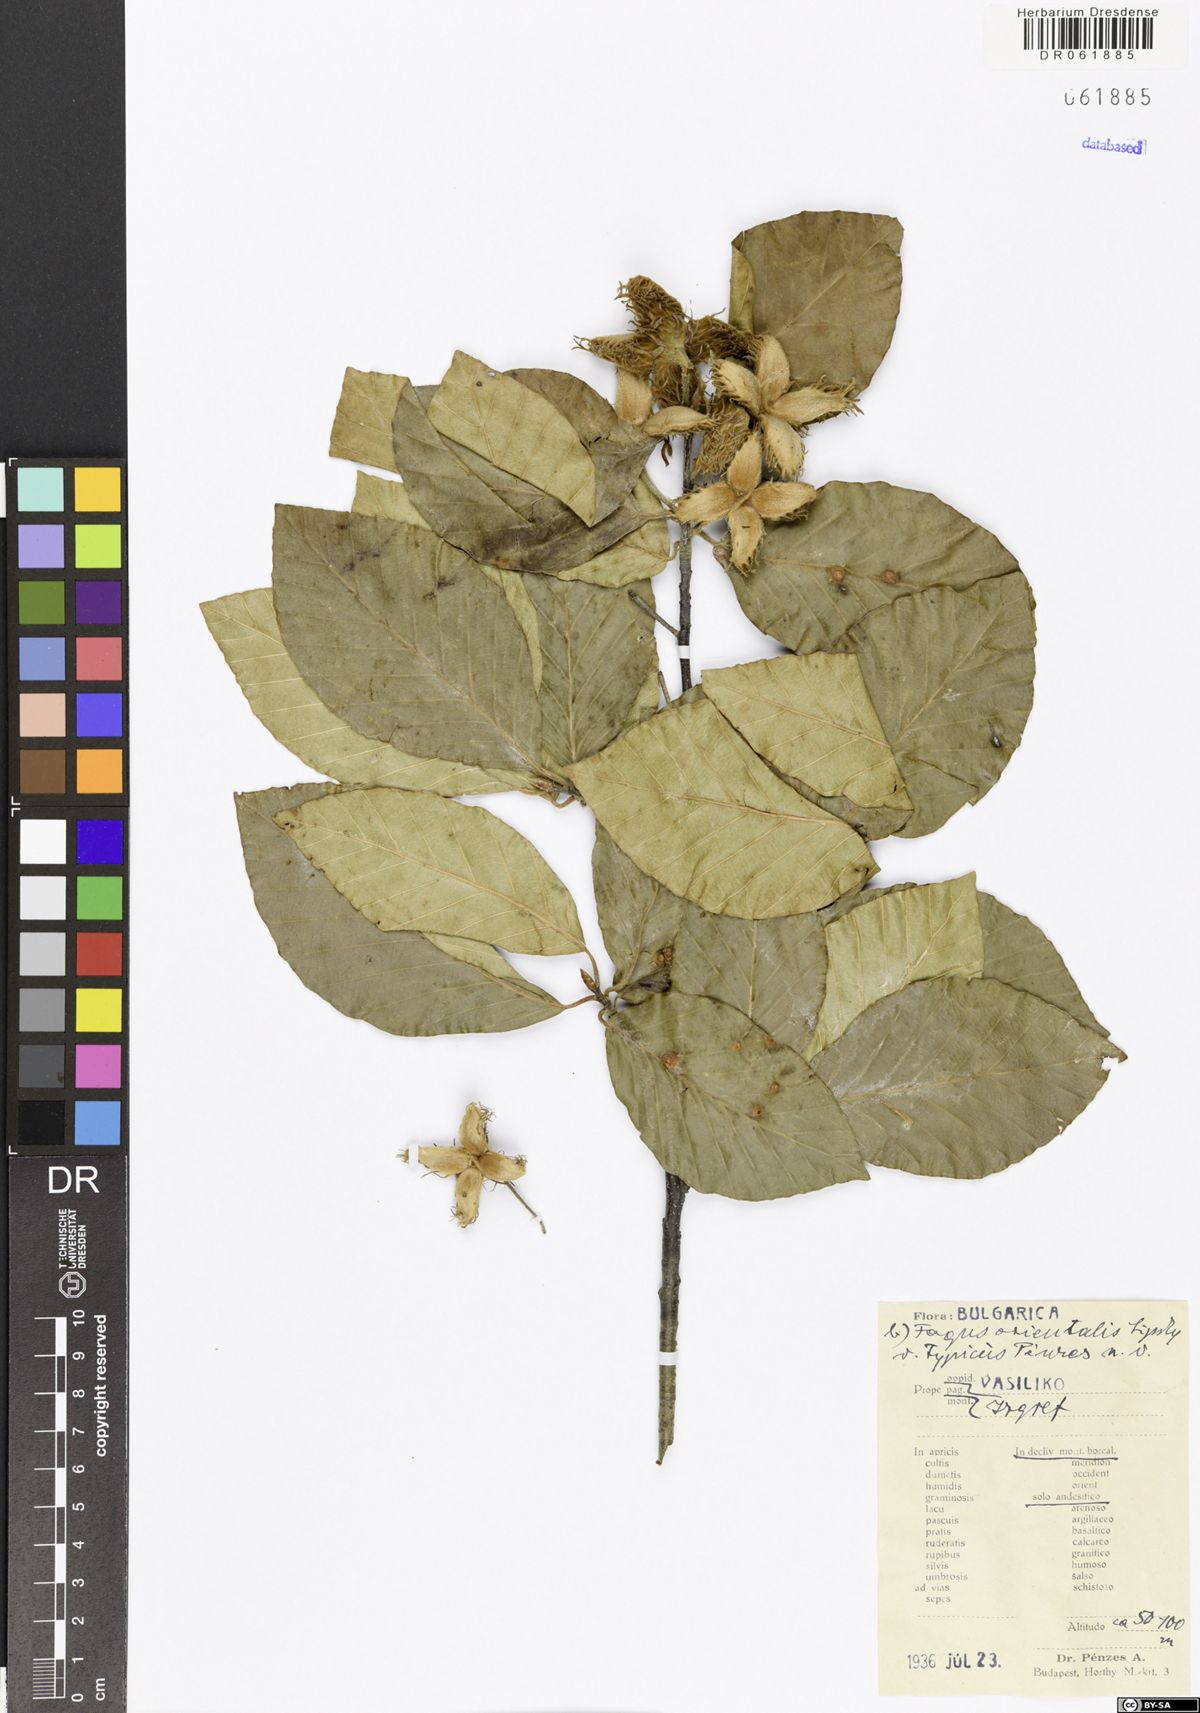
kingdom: Plantae
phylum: Tracheophyta
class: Magnoliopsida
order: Fagales
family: Fagaceae
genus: Fagus
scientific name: Fagus orientalis
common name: Oriental beech
